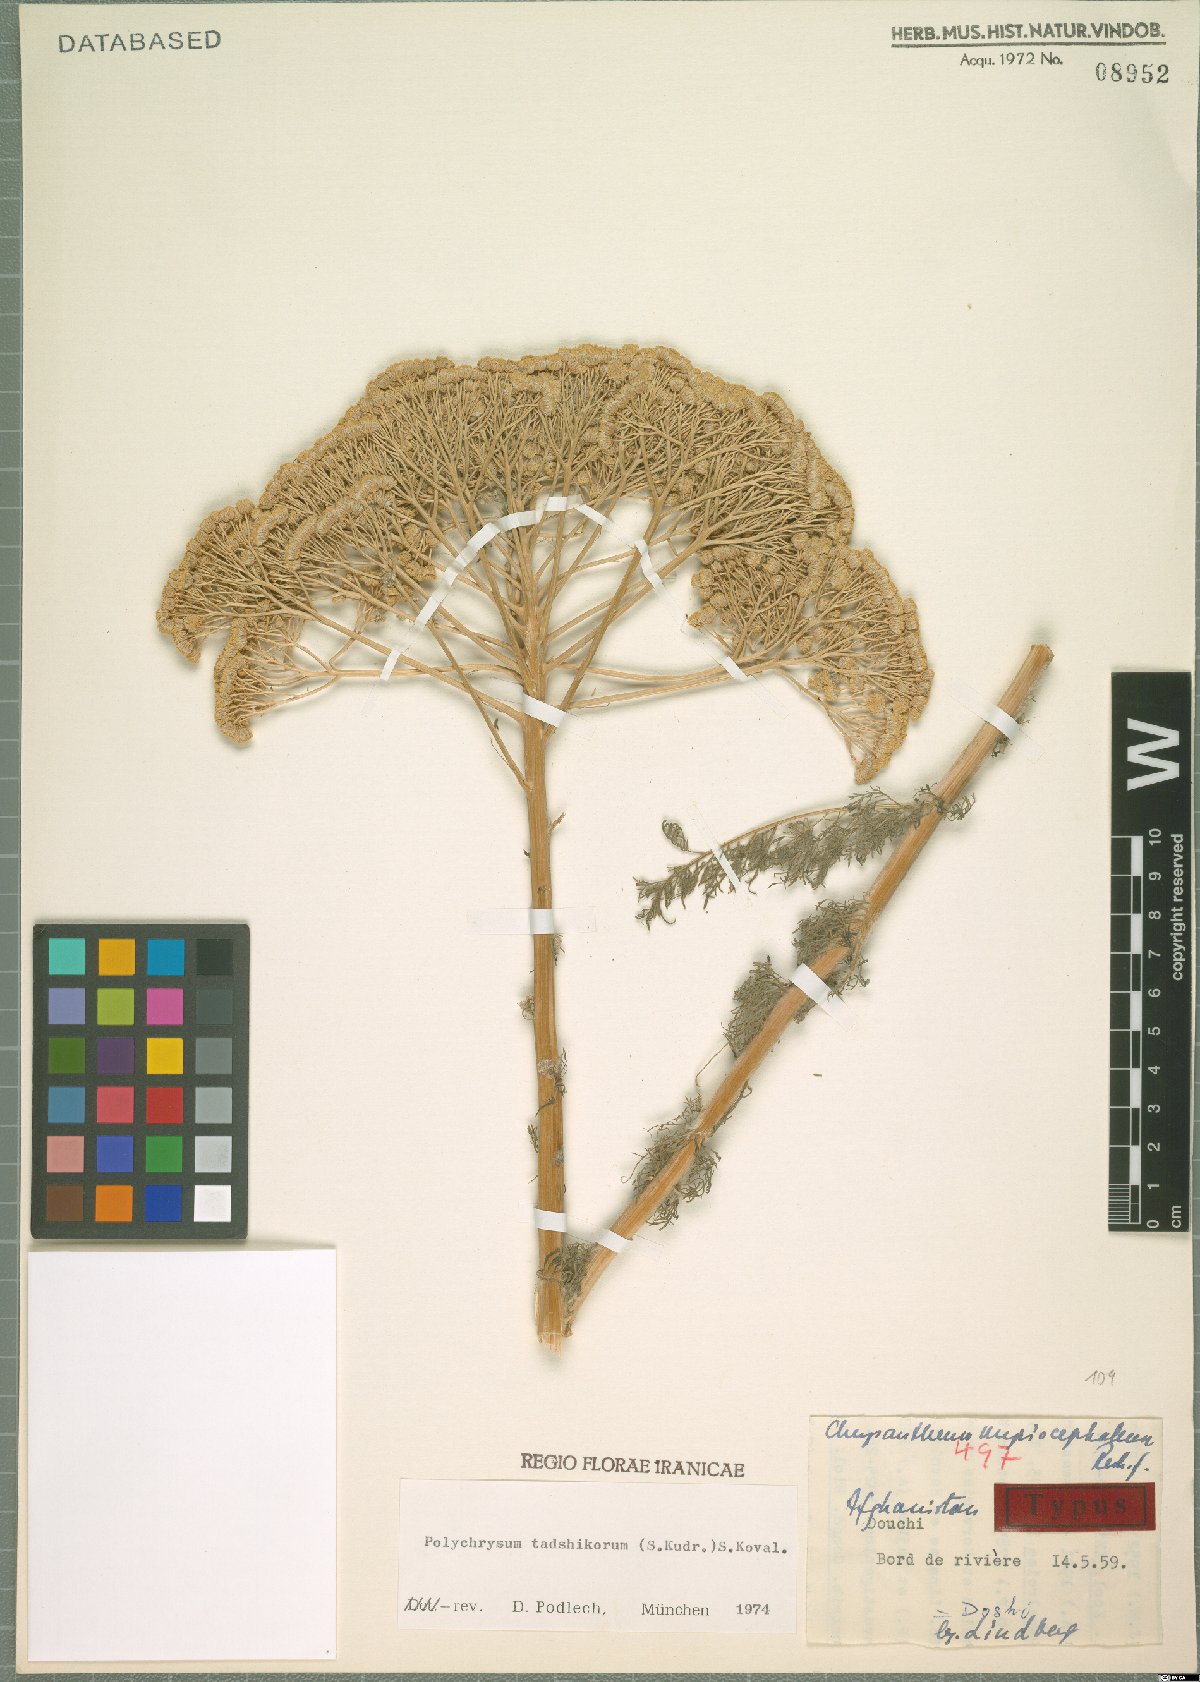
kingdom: Plantae
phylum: Tracheophyta
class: Magnoliopsida
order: Asterales
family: Asteraceae
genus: Polychrysum
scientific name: Polychrysum tadshikorum
